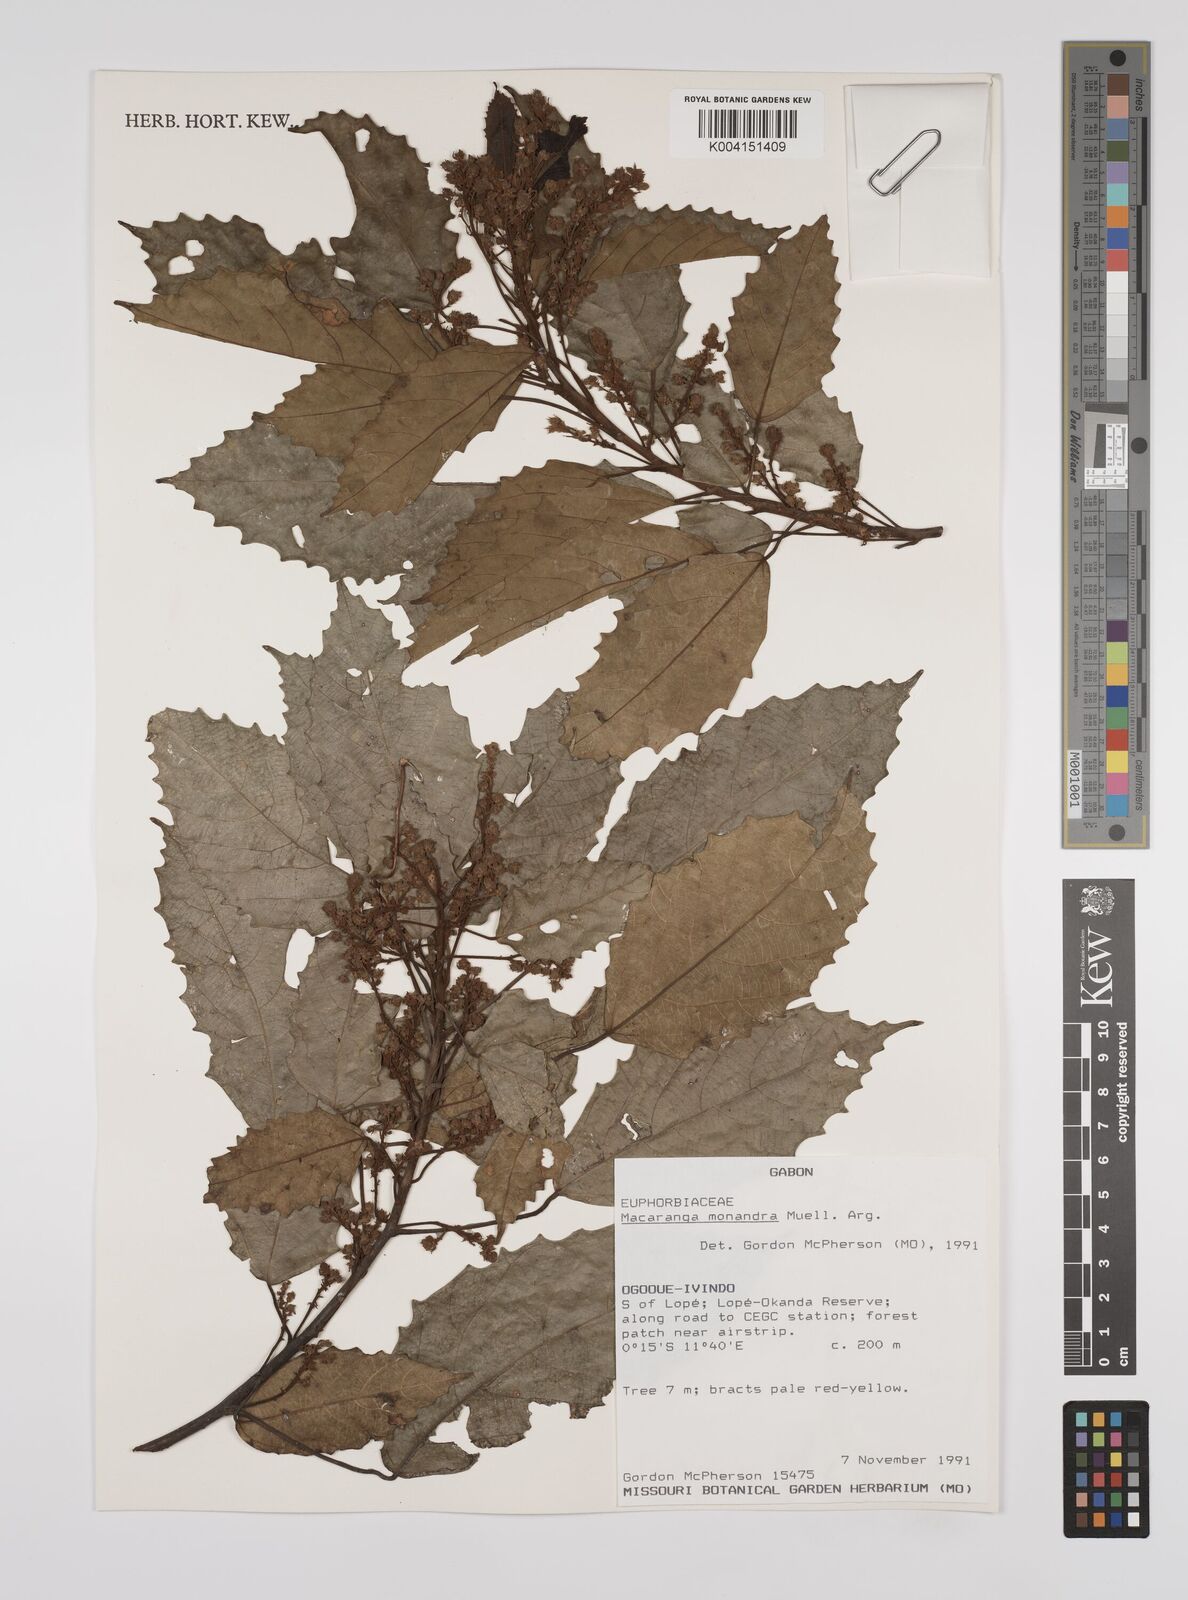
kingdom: Plantae
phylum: Tracheophyta
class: Magnoliopsida
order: Malpighiales
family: Euphorbiaceae
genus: Macaranga
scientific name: Macaranga monandra
